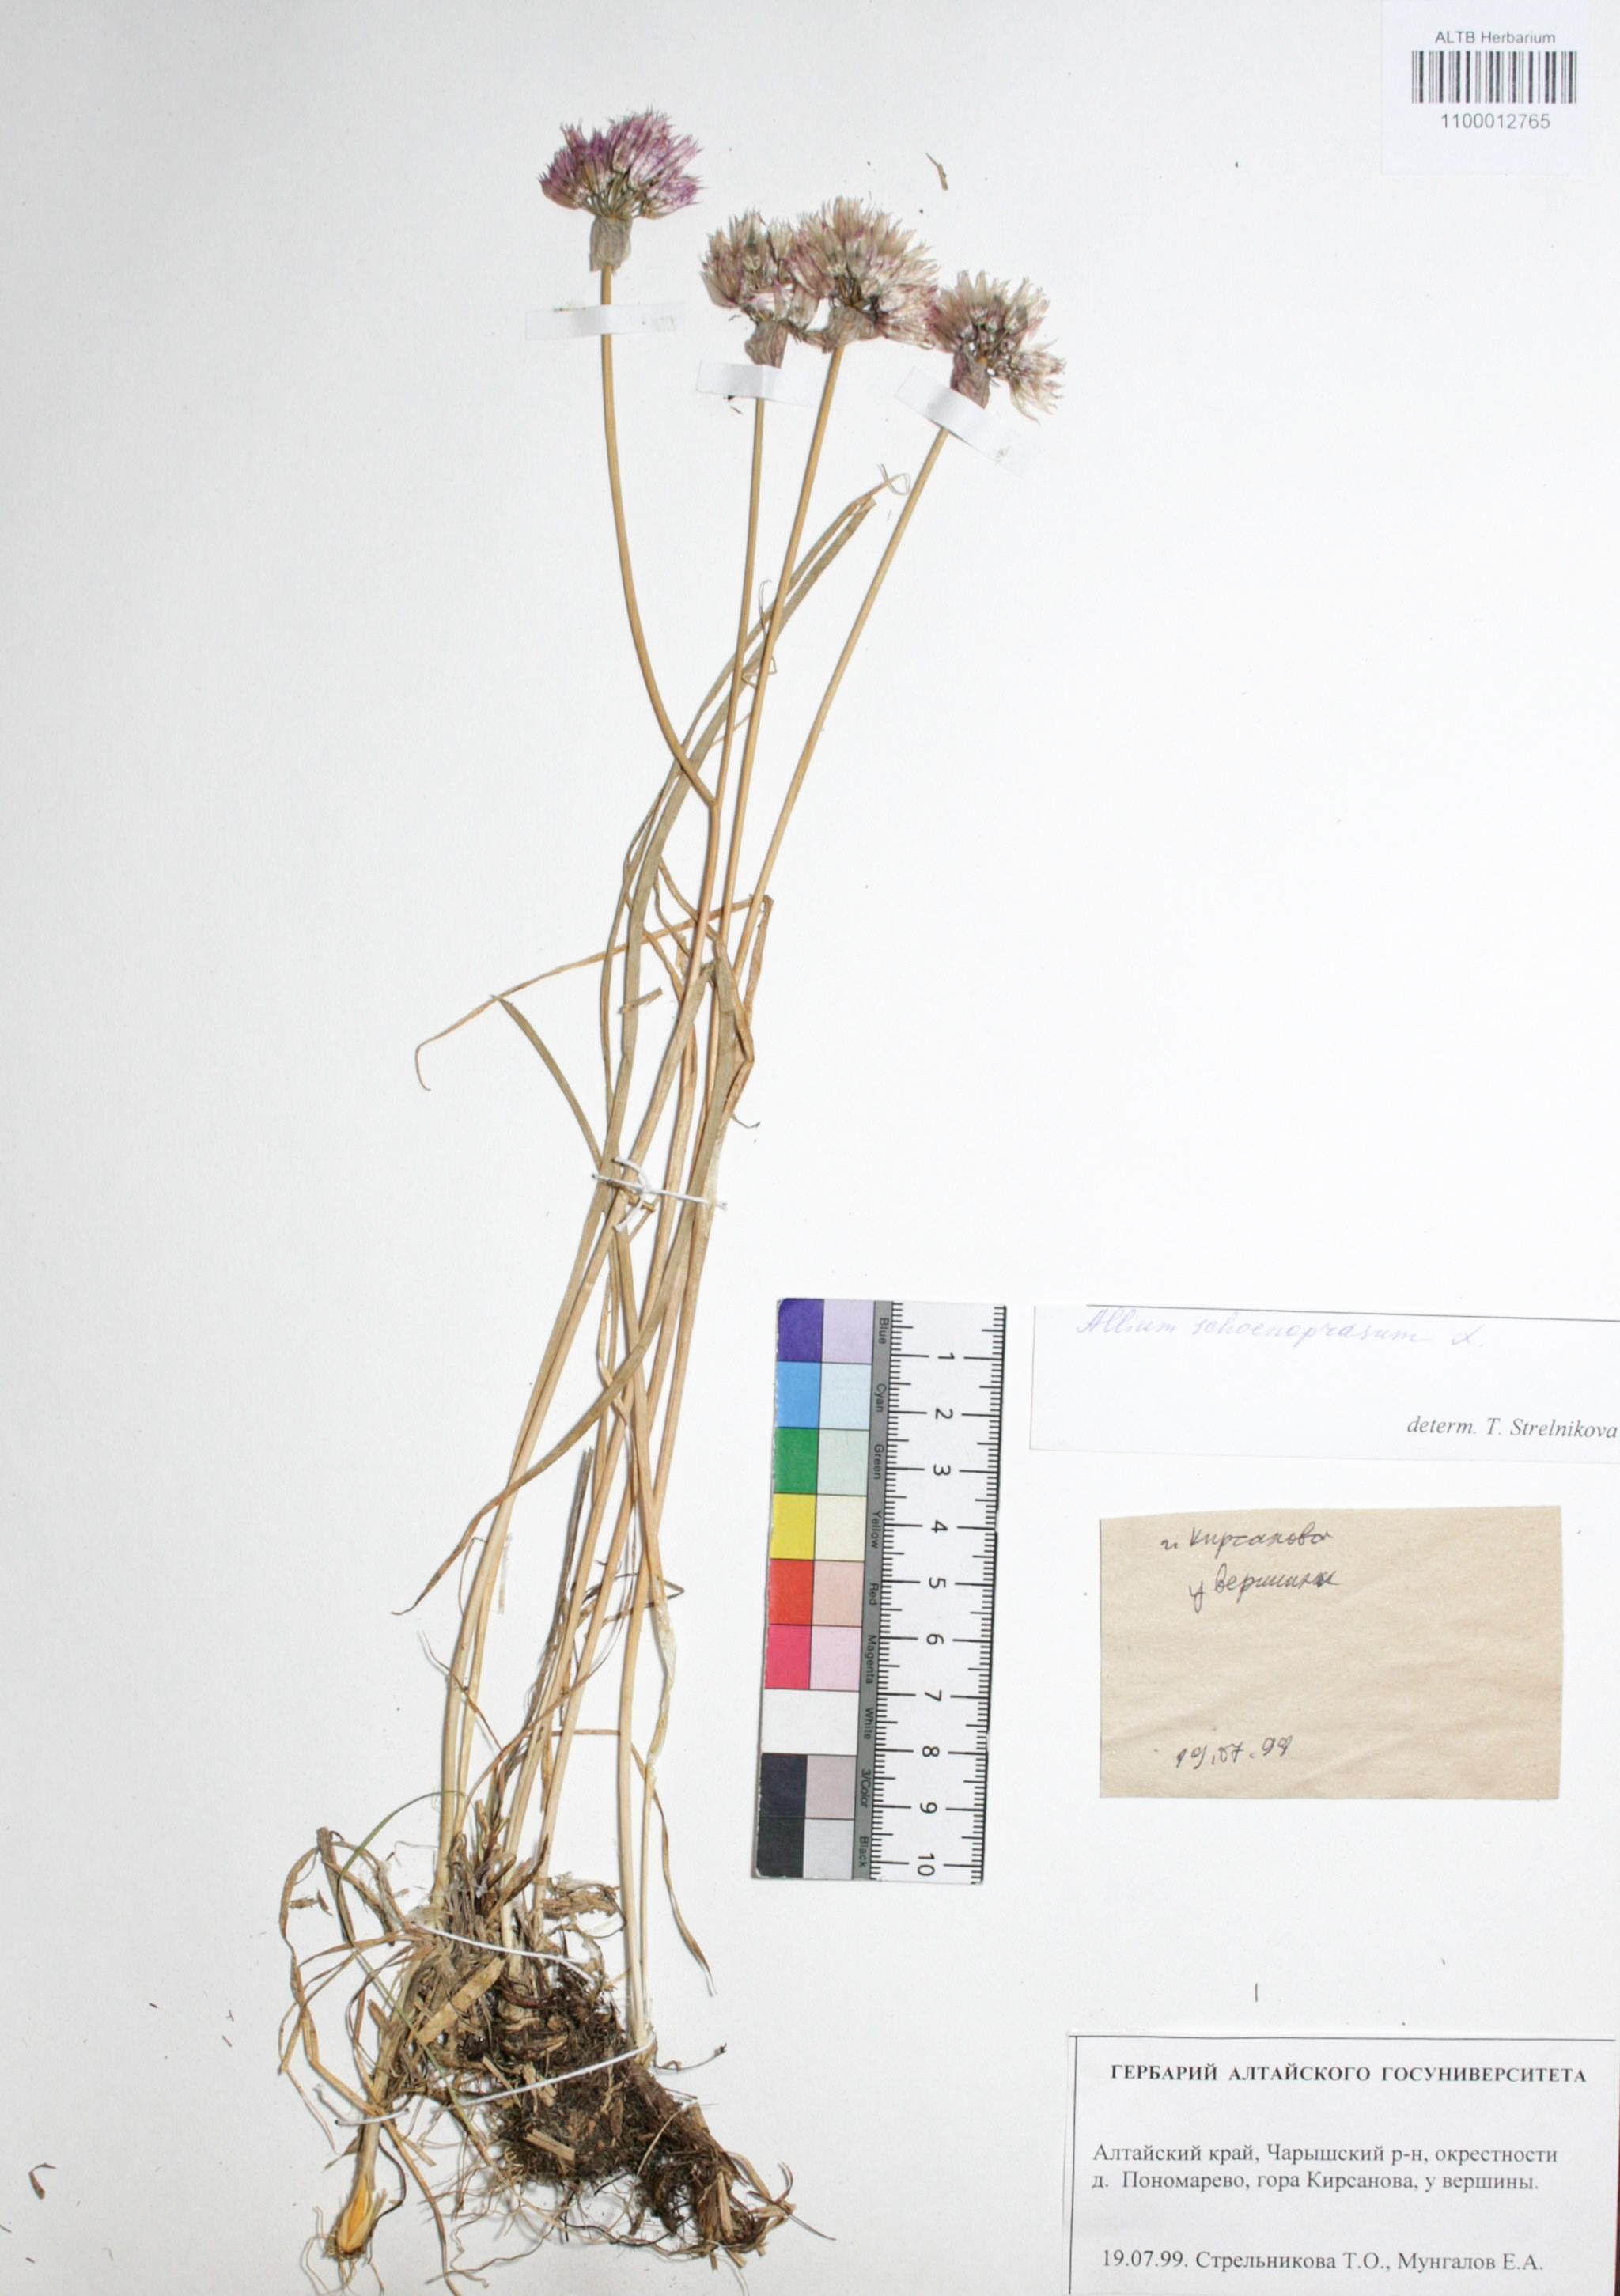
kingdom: Plantae
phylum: Tracheophyta
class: Liliopsida
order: Asparagales
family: Amaryllidaceae
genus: Allium
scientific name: Allium schoenoprasum
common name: Chives
